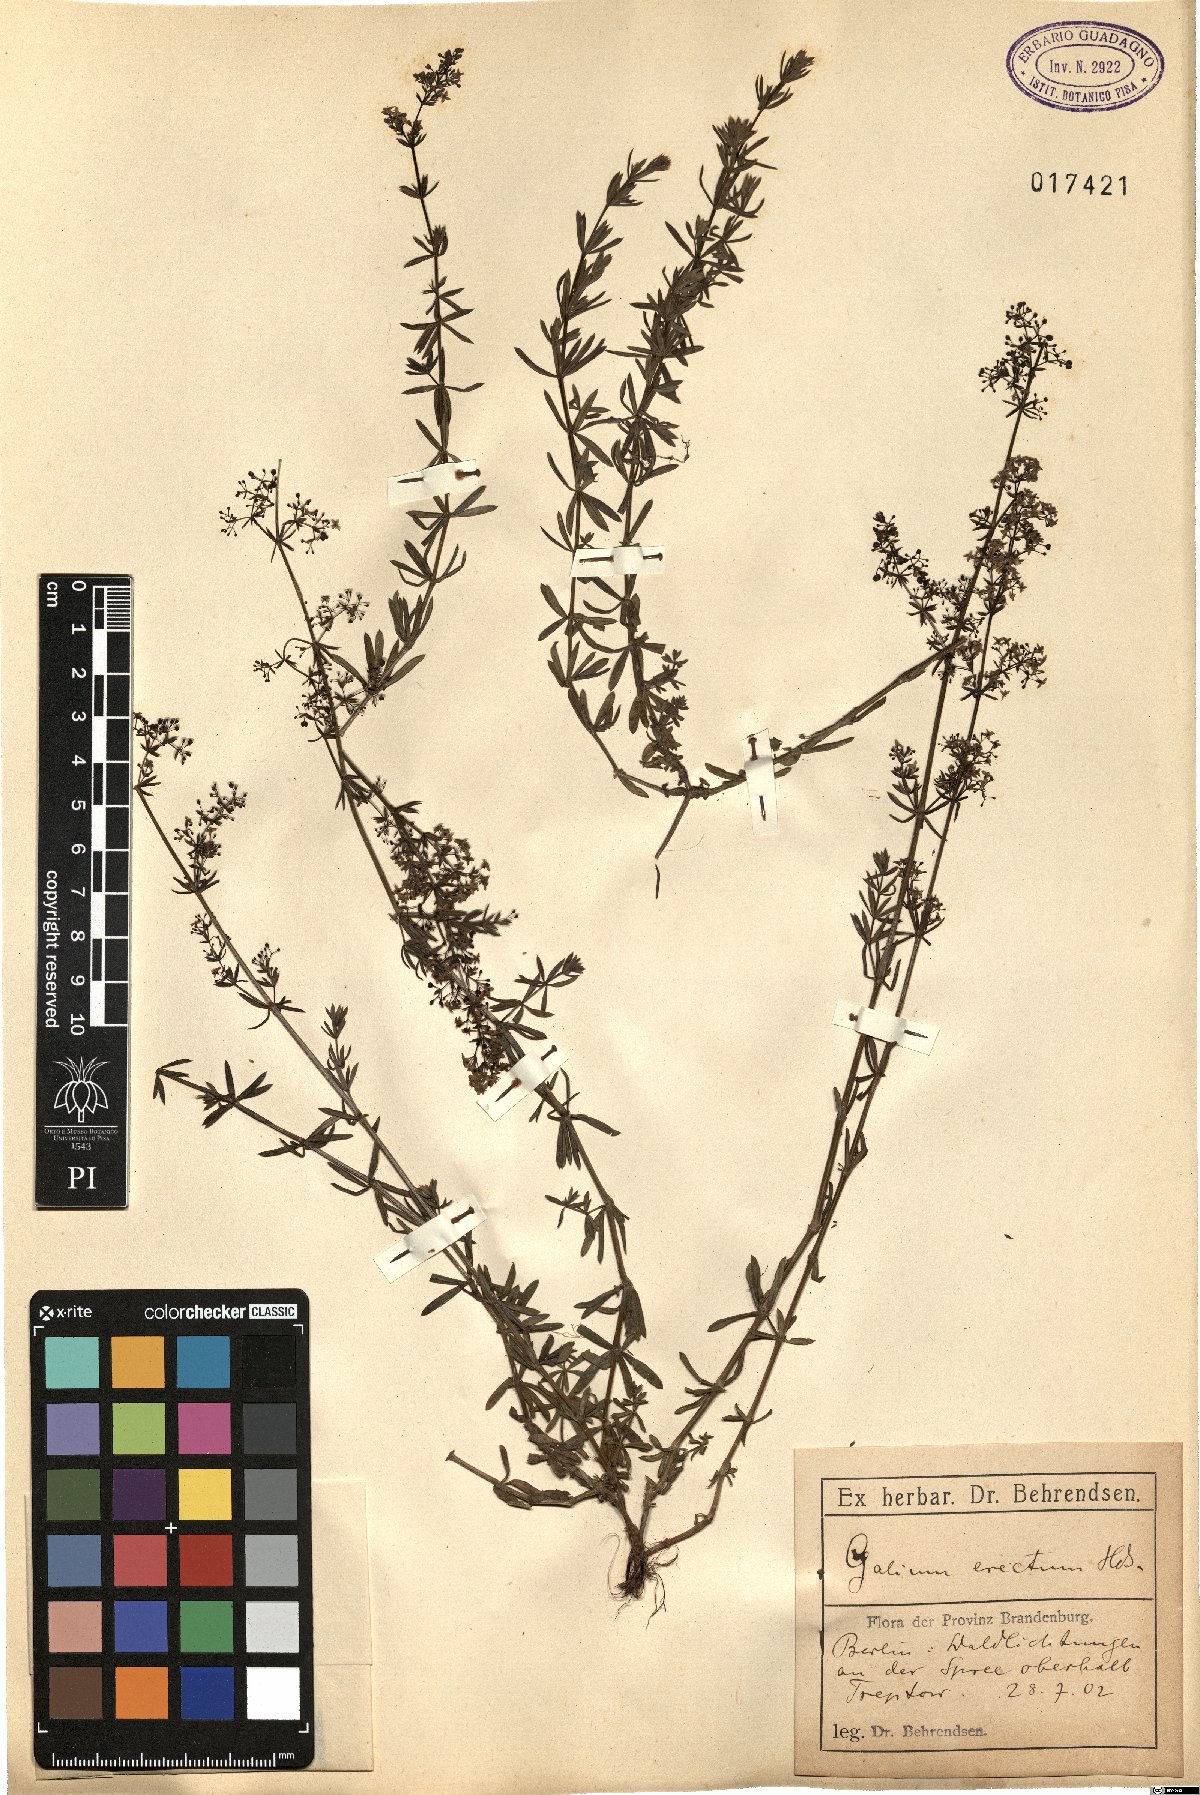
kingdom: Plantae
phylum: Tracheophyta
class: Magnoliopsida
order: Gentianales
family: Rubiaceae
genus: Galium
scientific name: Galium album
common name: White bedstraw
